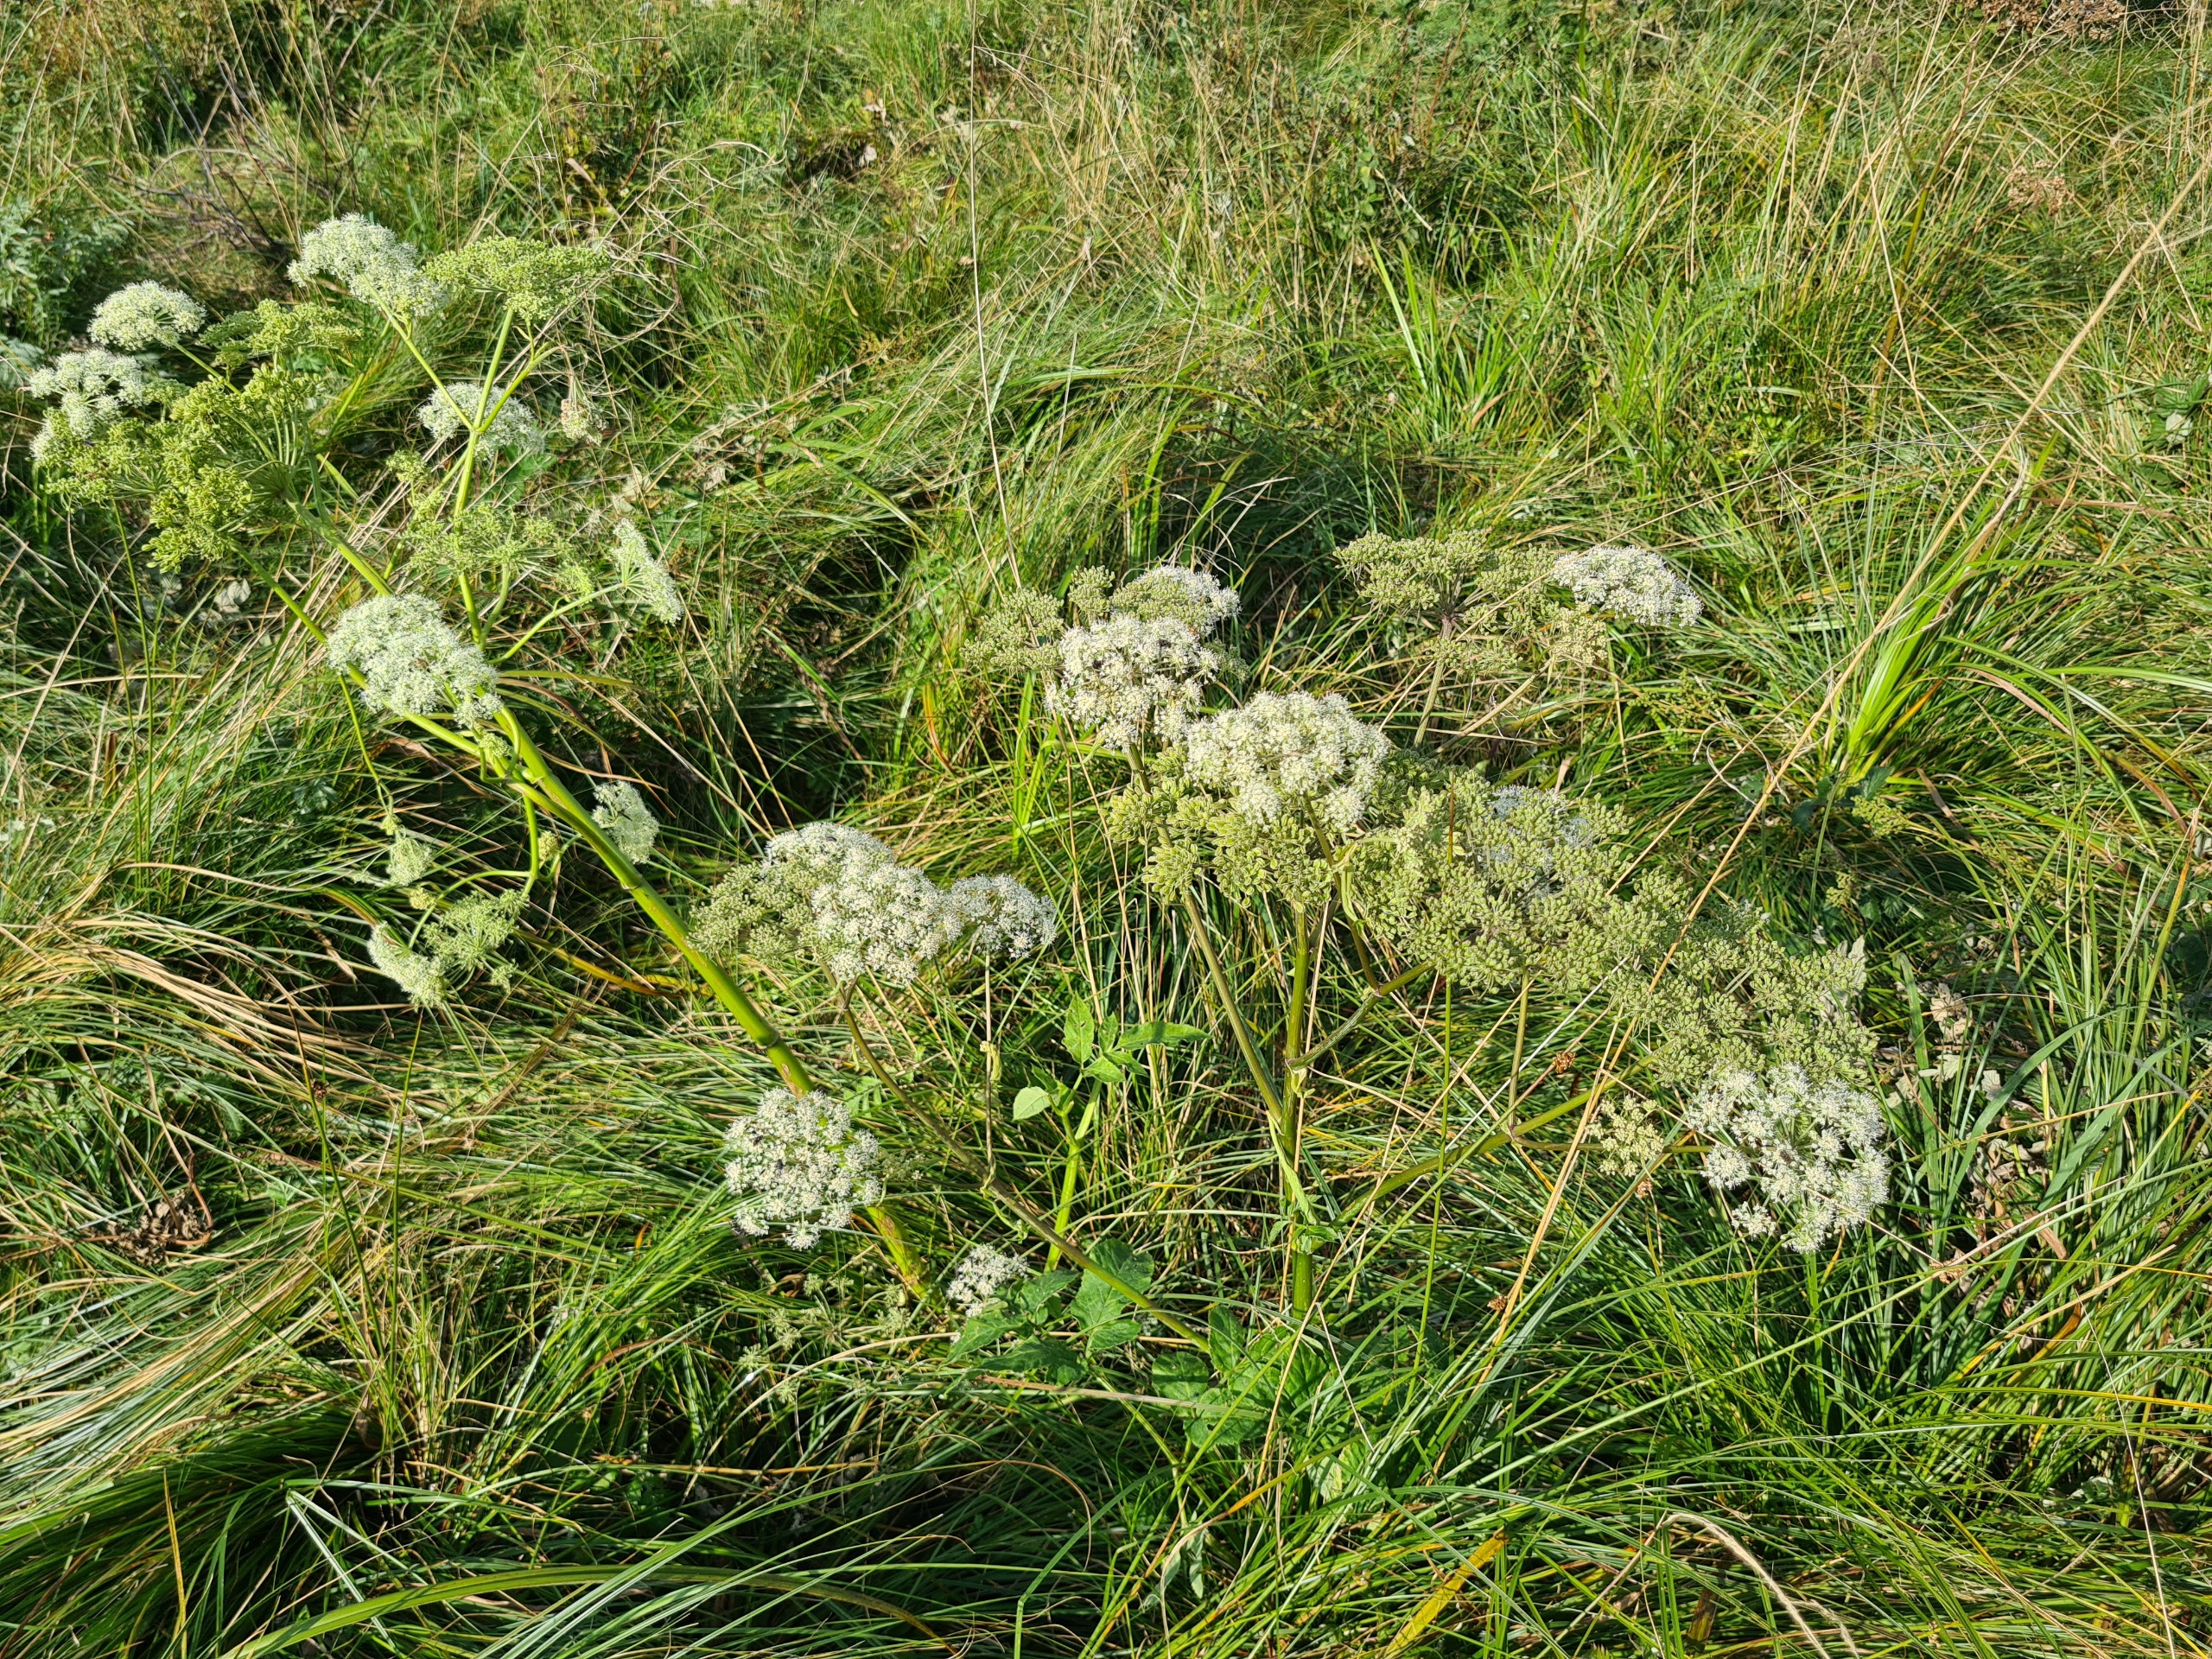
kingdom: Plantae
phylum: Tracheophyta
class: Magnoliopsida
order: Apiales
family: Apiaceae
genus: Angelica
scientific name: Angelica sylvestris
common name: Angelik
